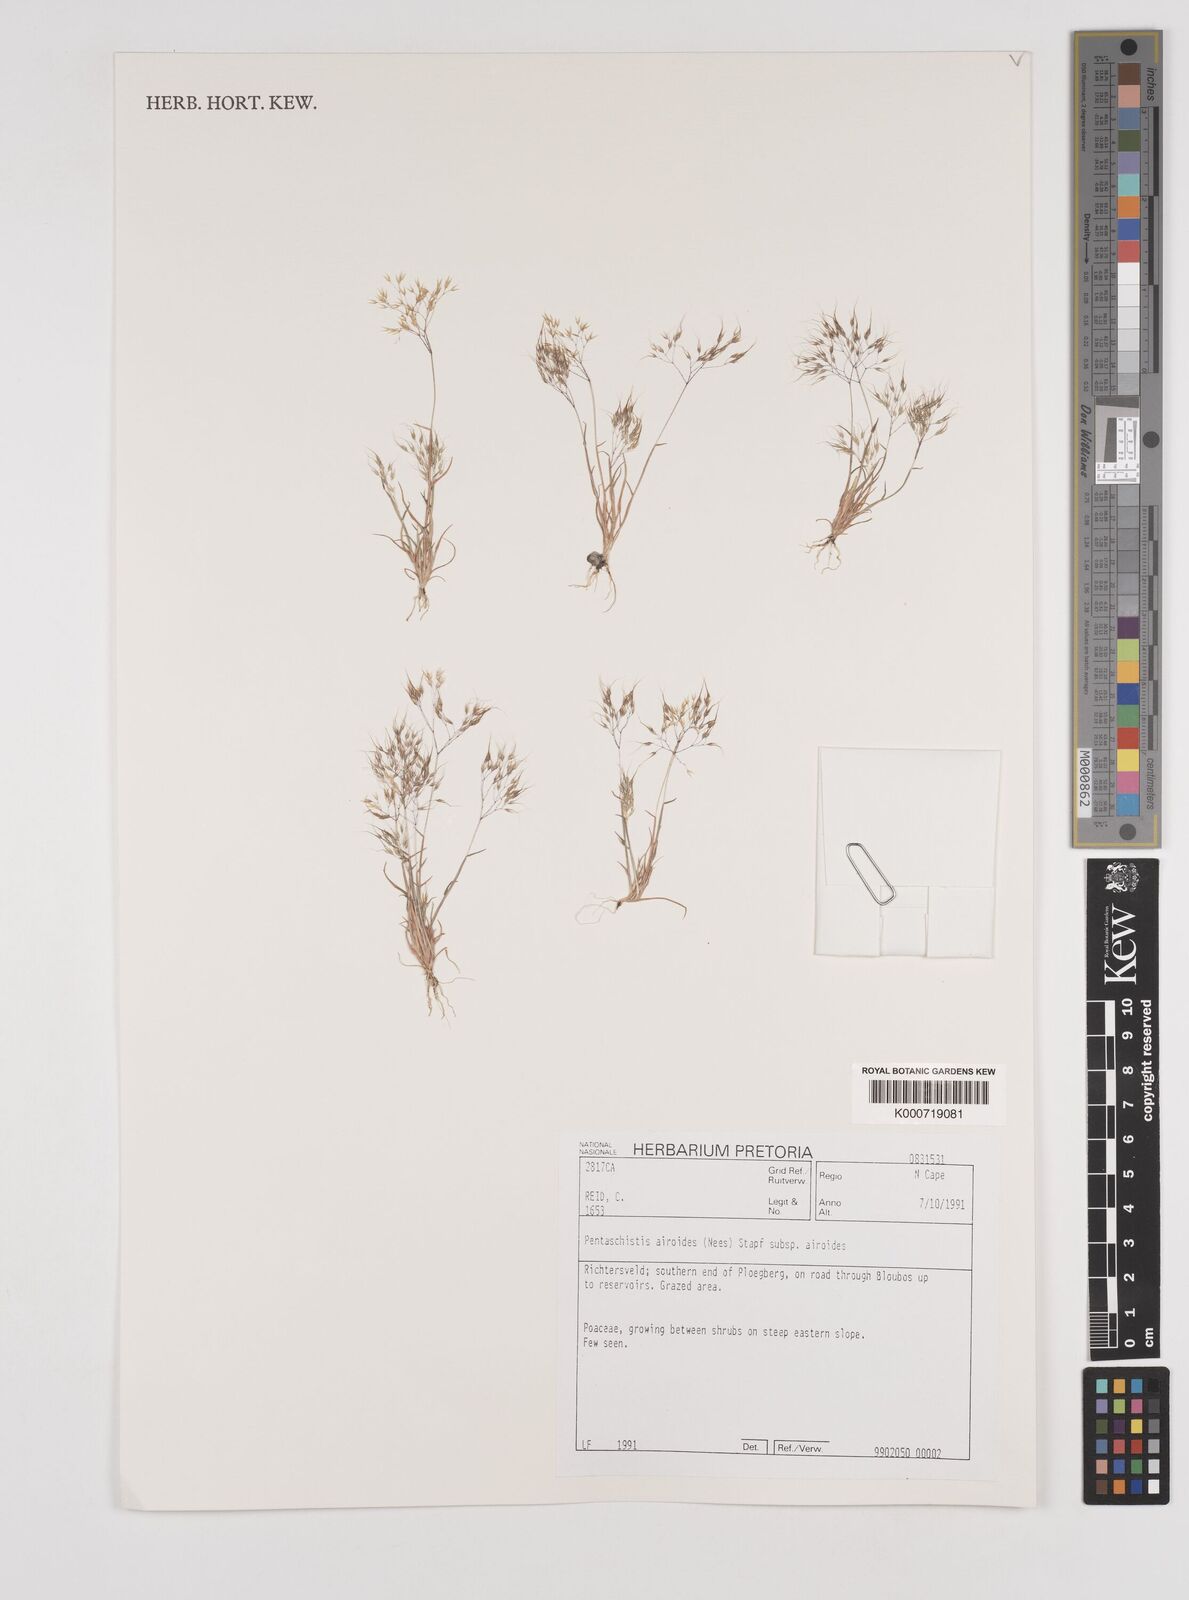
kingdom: Plantae
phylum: Tracheophyta
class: Liliopsida
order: Poales
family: Poaceae
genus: Pentameris
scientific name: Pentameris airoides
